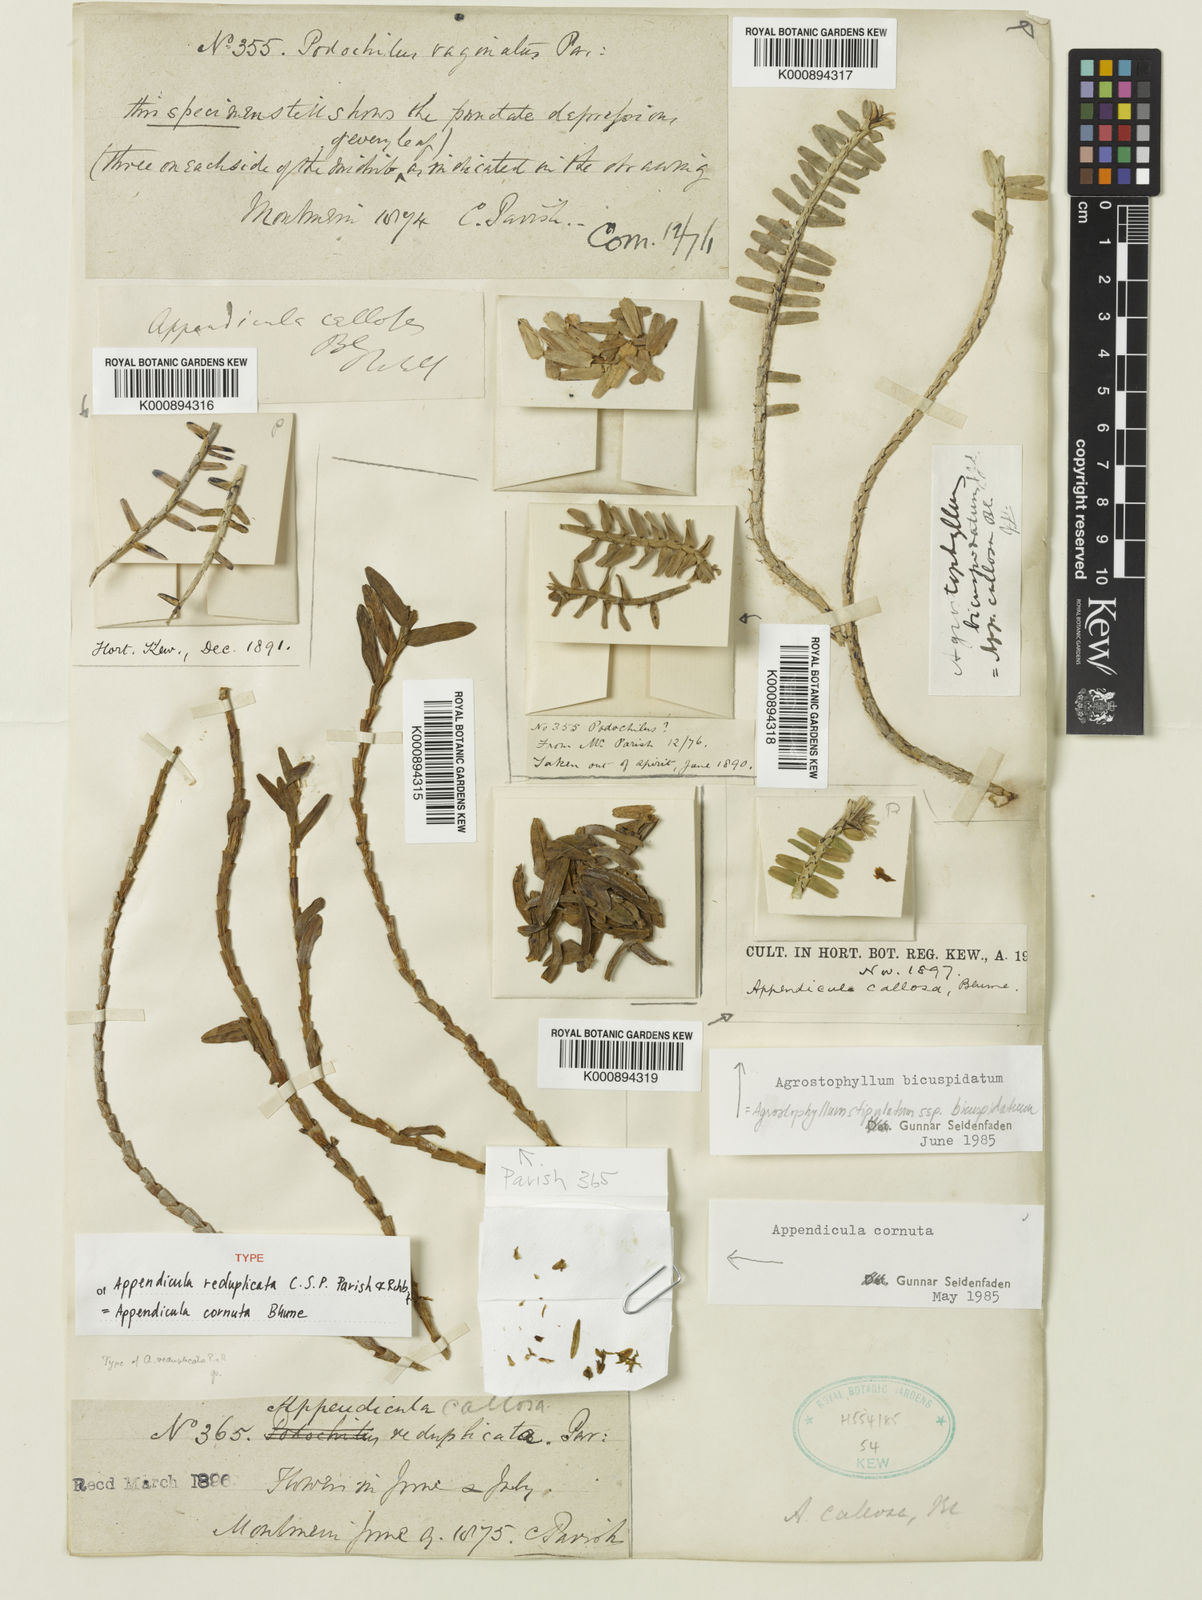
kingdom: Plantae
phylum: Tracheophyta
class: Liliopsida
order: Asparagales
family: Orchidaceae
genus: Appendicula
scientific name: Appendicula cornuta
